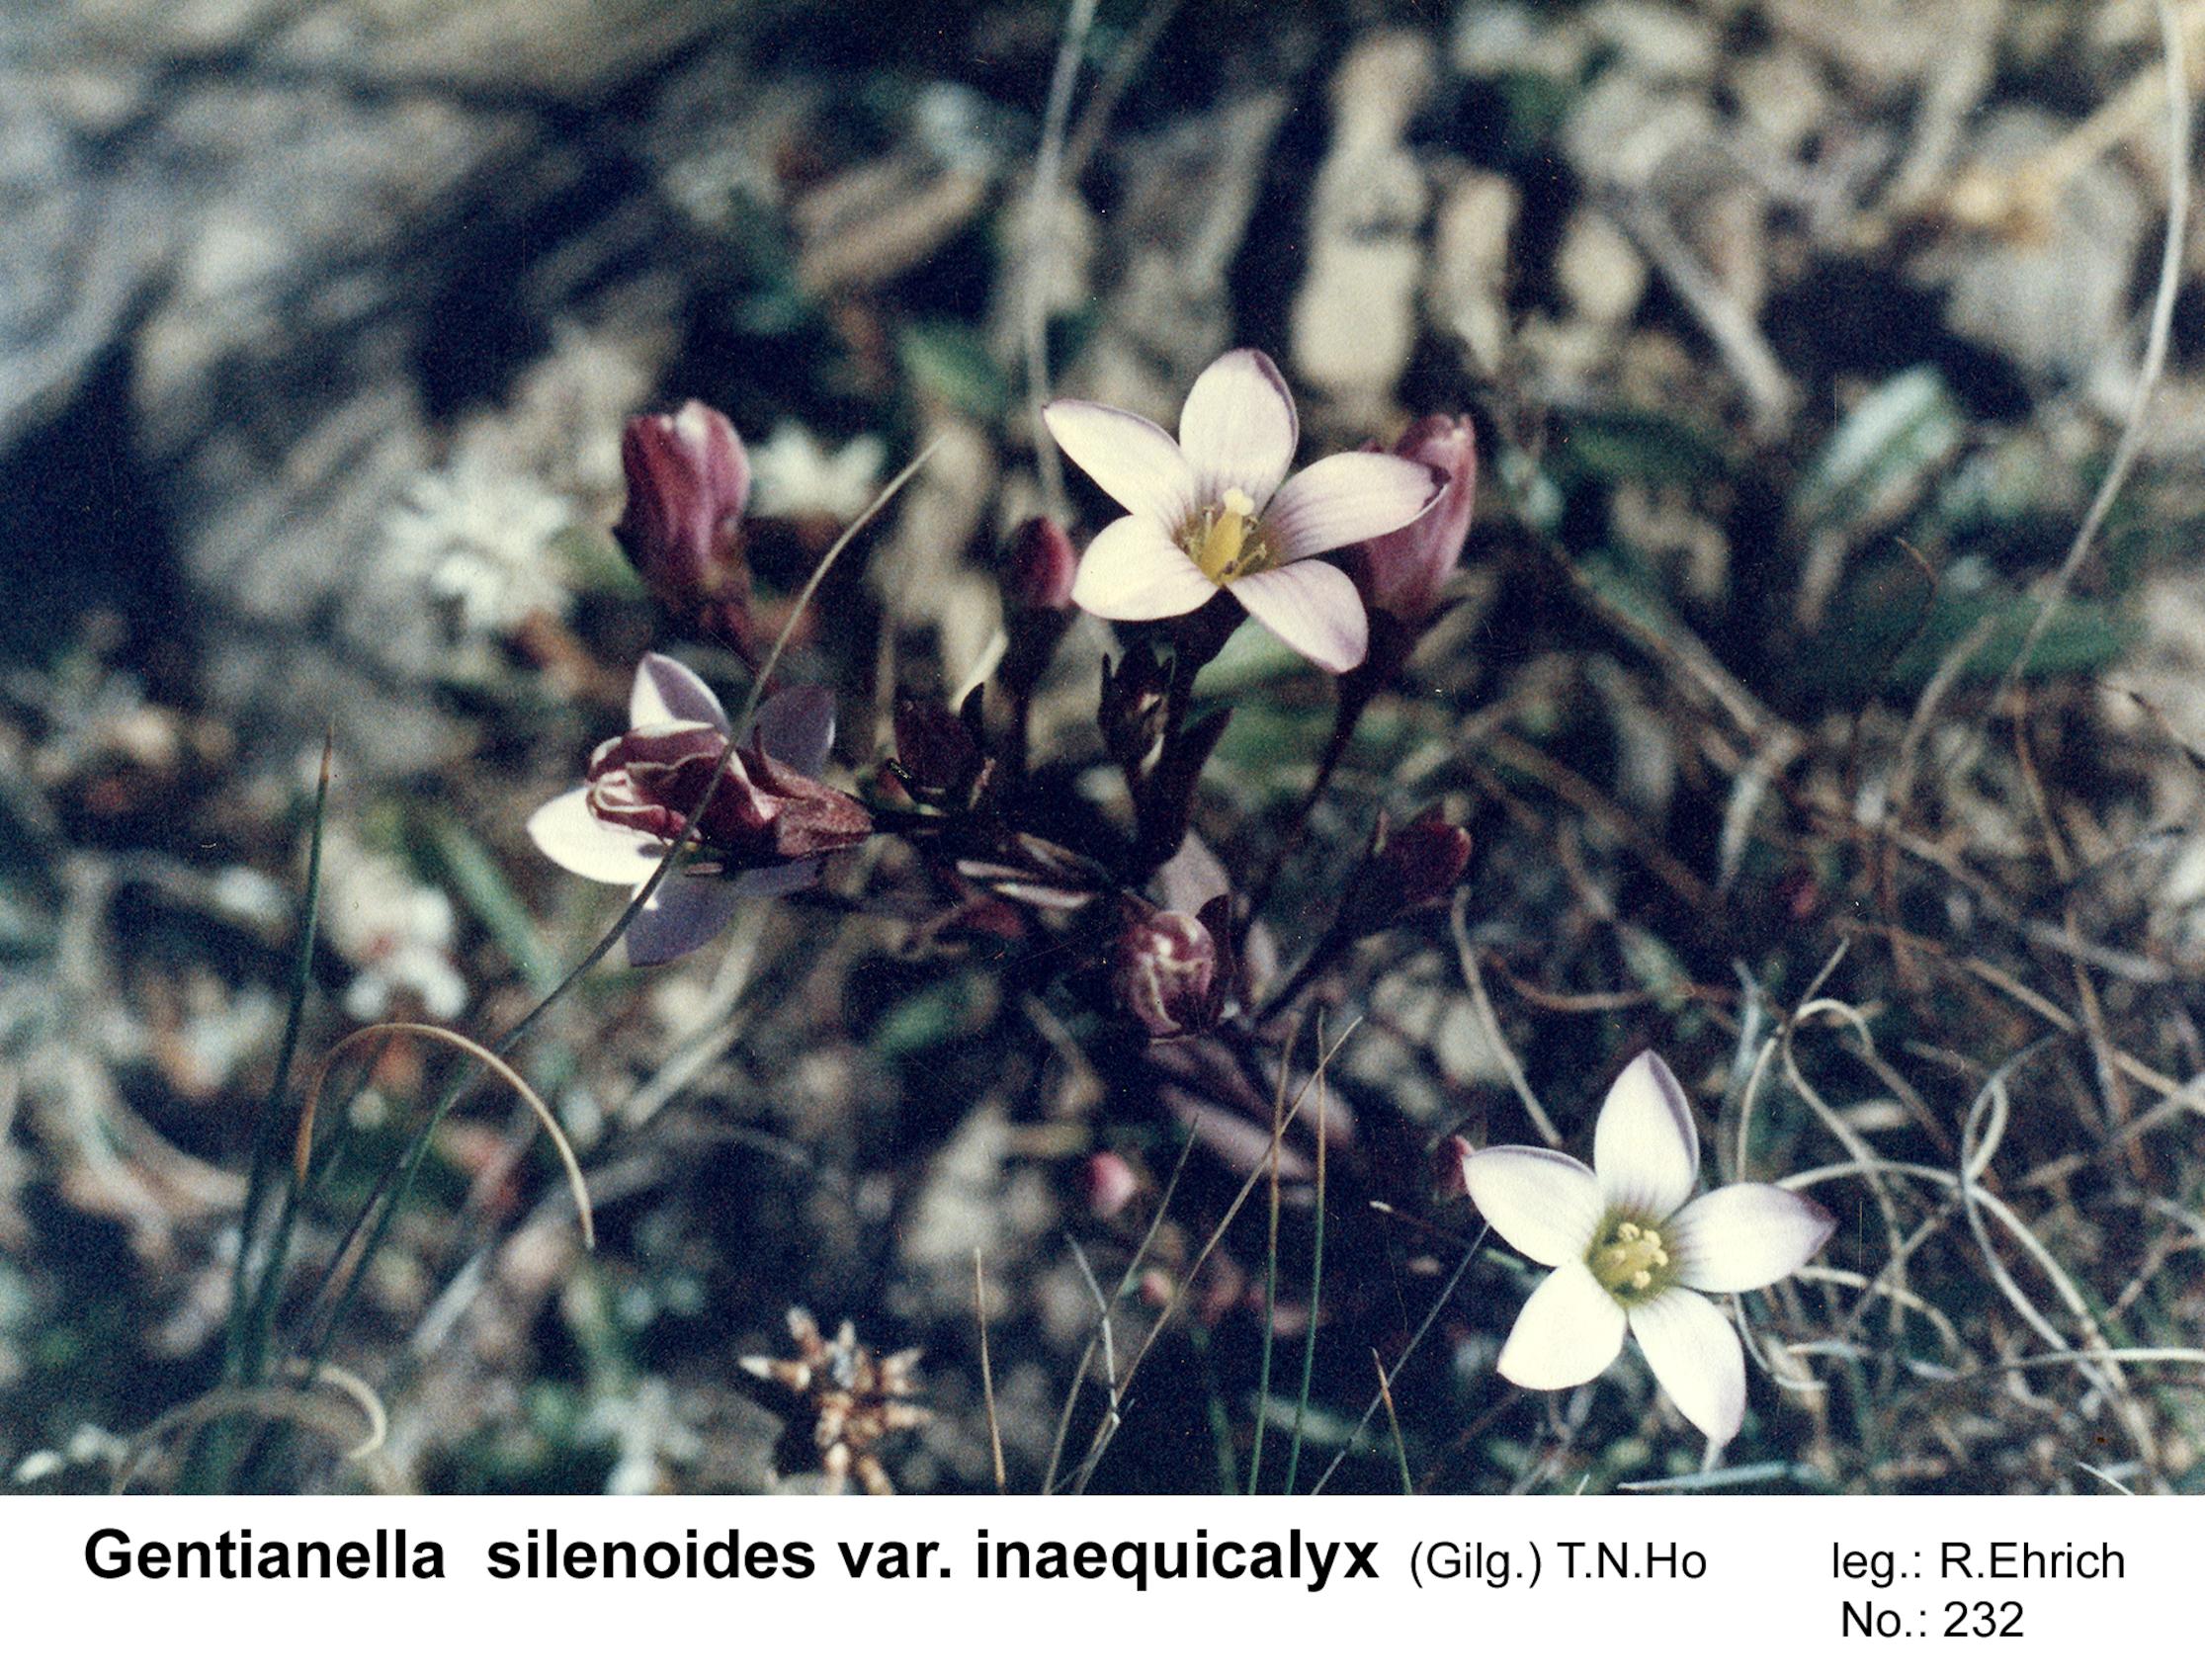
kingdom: Plantae
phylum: Tracheophyta
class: Magnoliopsida
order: Gentianales
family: Gentianaceae
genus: Gentianella
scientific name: Gentianella inaequicalyx
